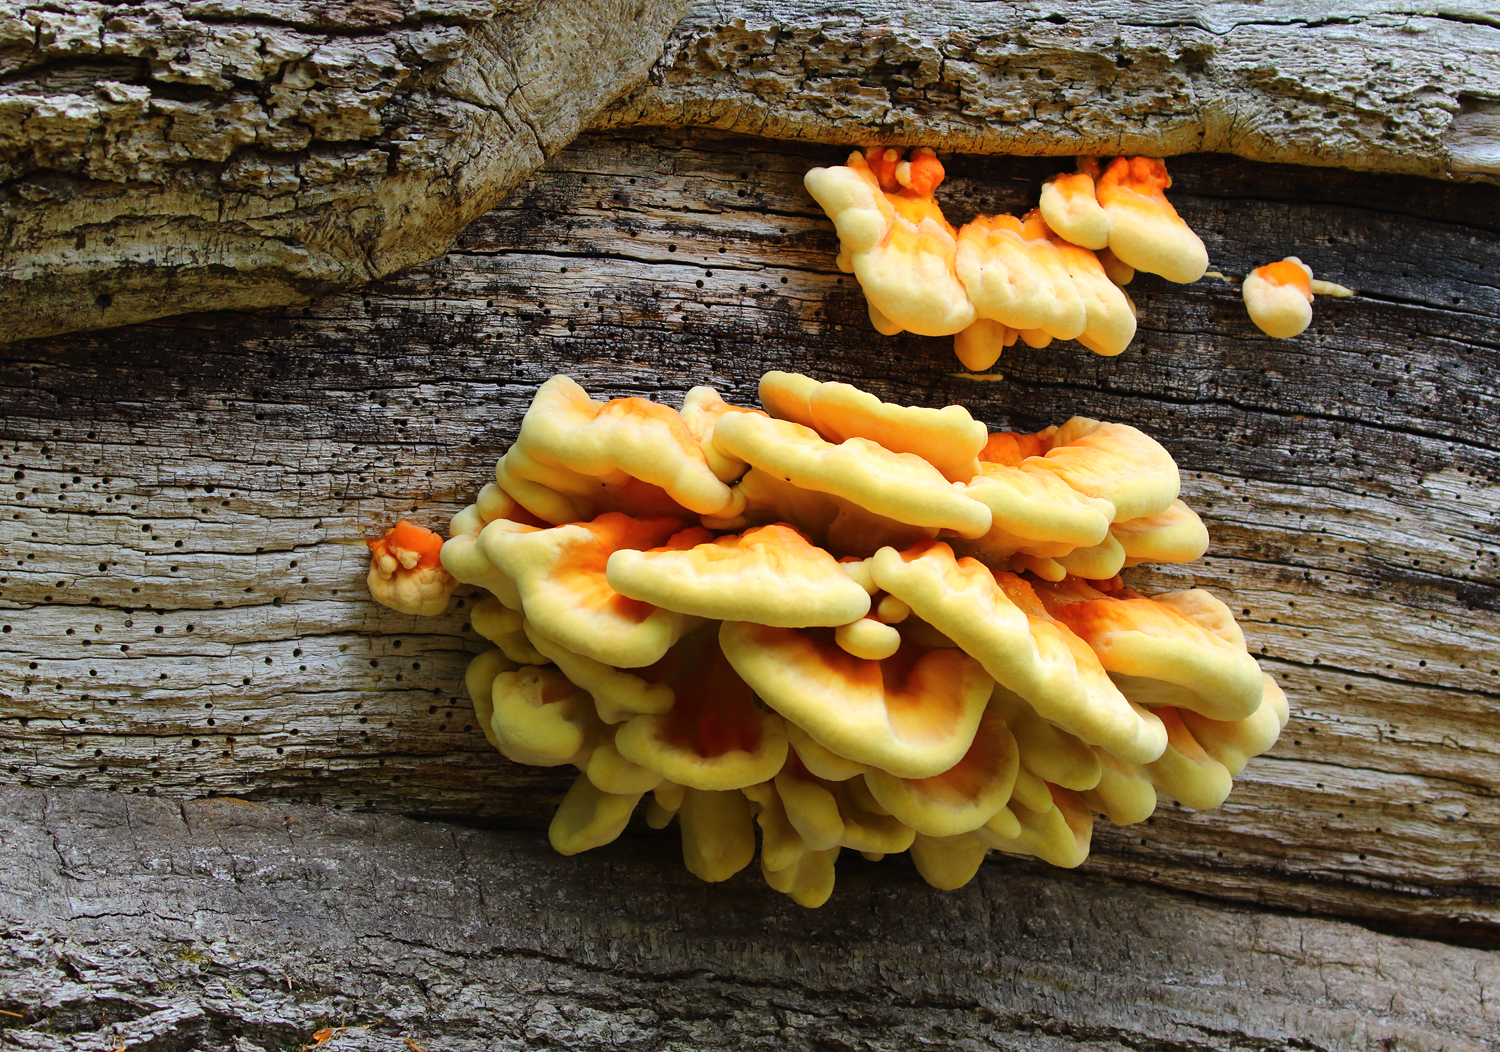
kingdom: Fungi
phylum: Basidiomycota
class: Agaricomycetes
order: Polyporales
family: Laetiporaceae
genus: Laetiporus
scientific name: Laetiporus sulphureus
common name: svovlporesvamp
